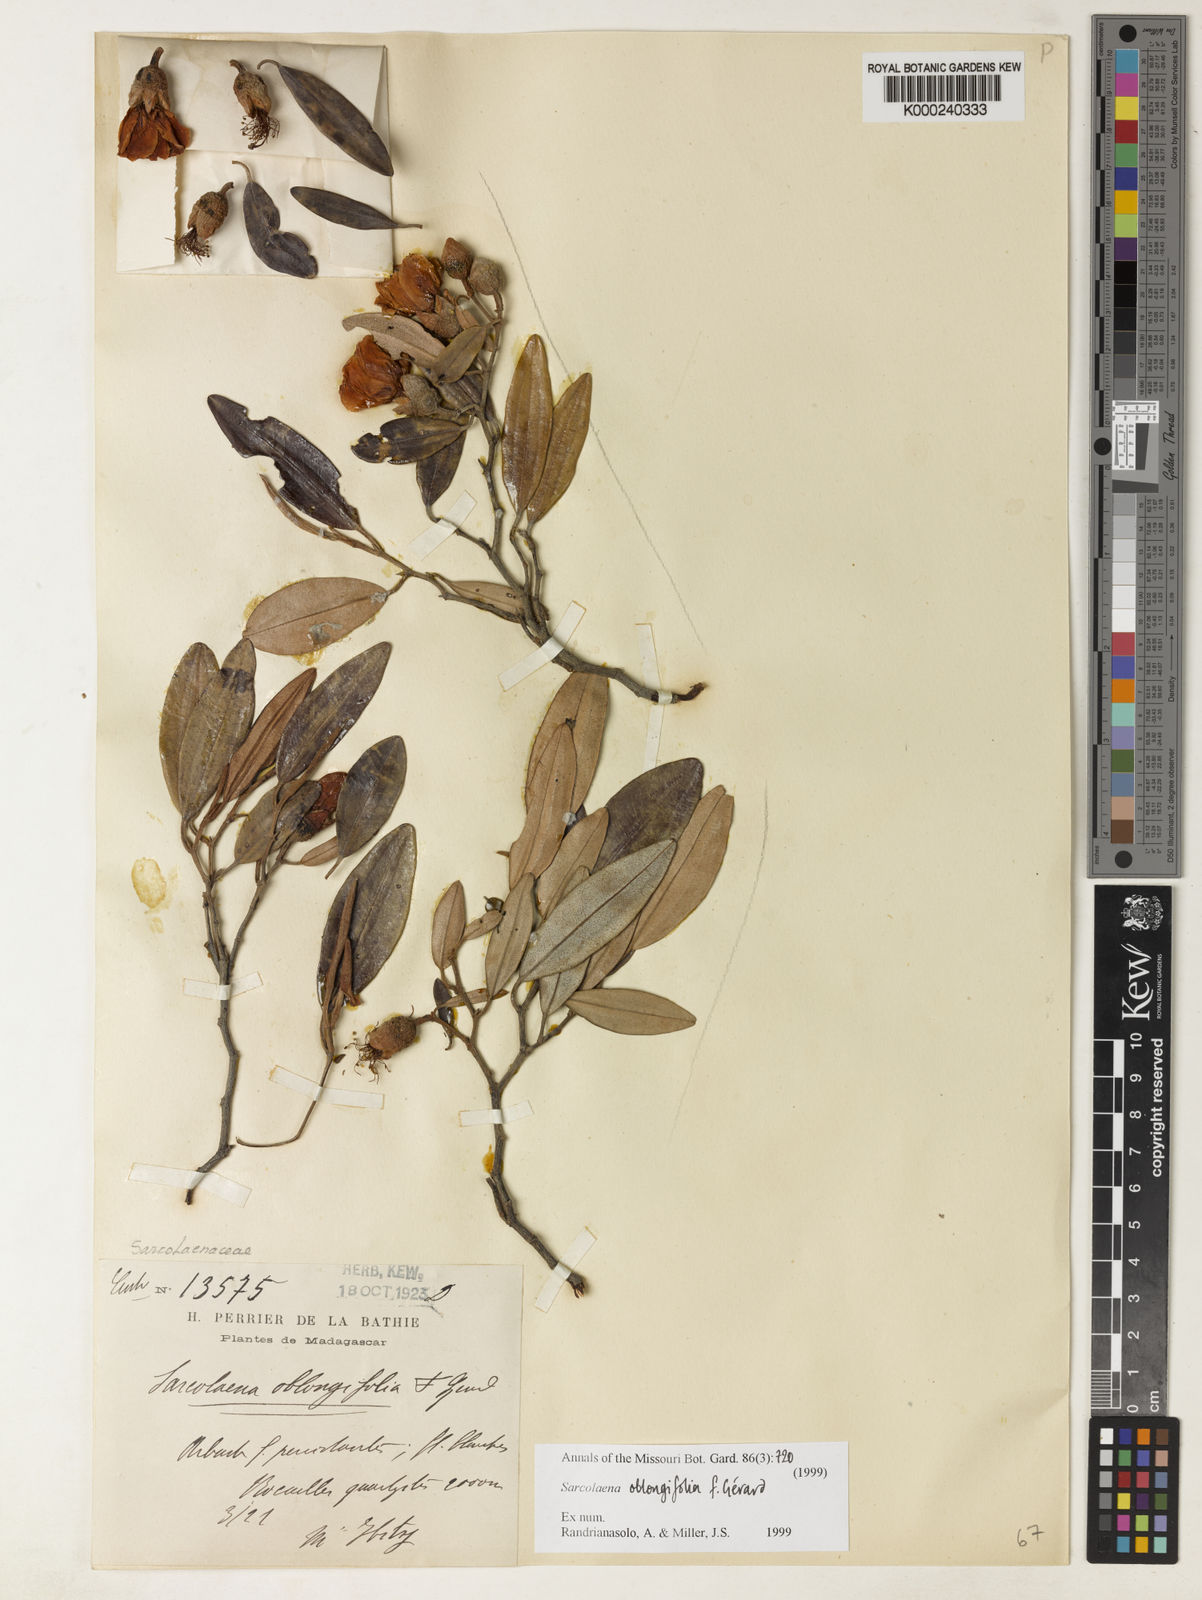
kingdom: Plantae
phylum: Tracheophyta
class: Magnoliopsida
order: Malvales
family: Sarcolaenaceae
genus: Sarcolaena
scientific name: Sarcolaena oblongifolia
